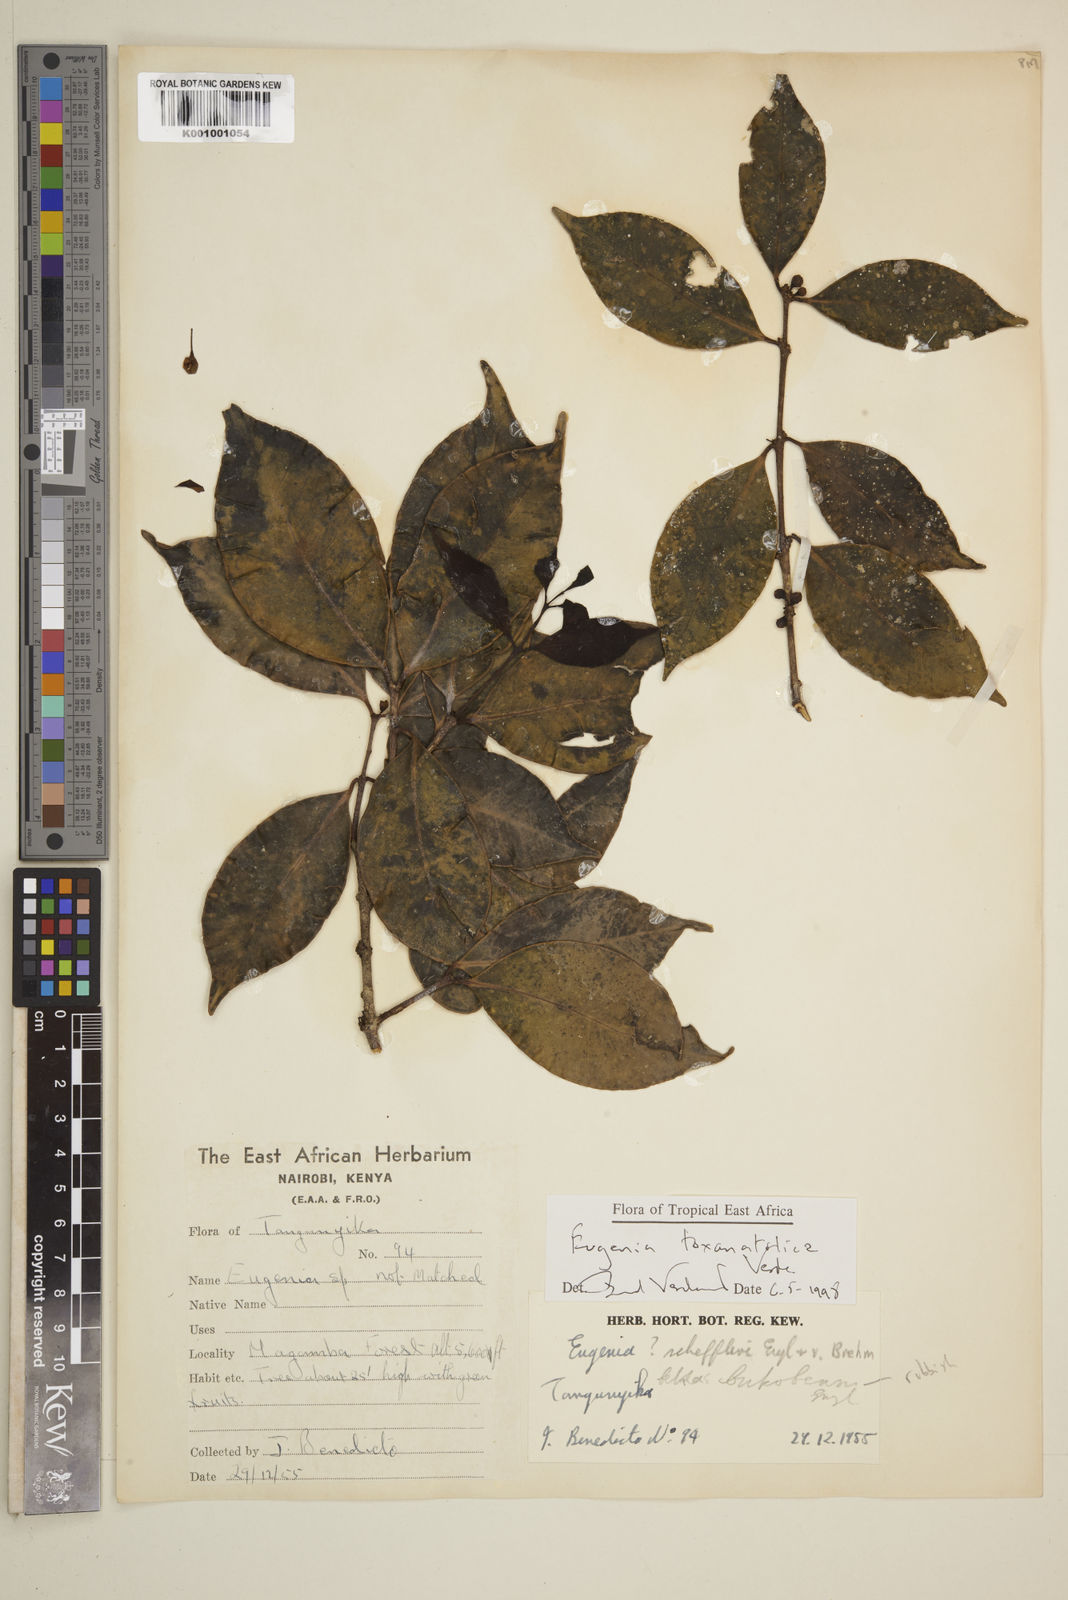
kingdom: Plantae
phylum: Tracheophyta
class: Magnoliopsida
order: Myrtales
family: Myrtaceae
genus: Eugenia
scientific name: Eugenia toxanatolica
